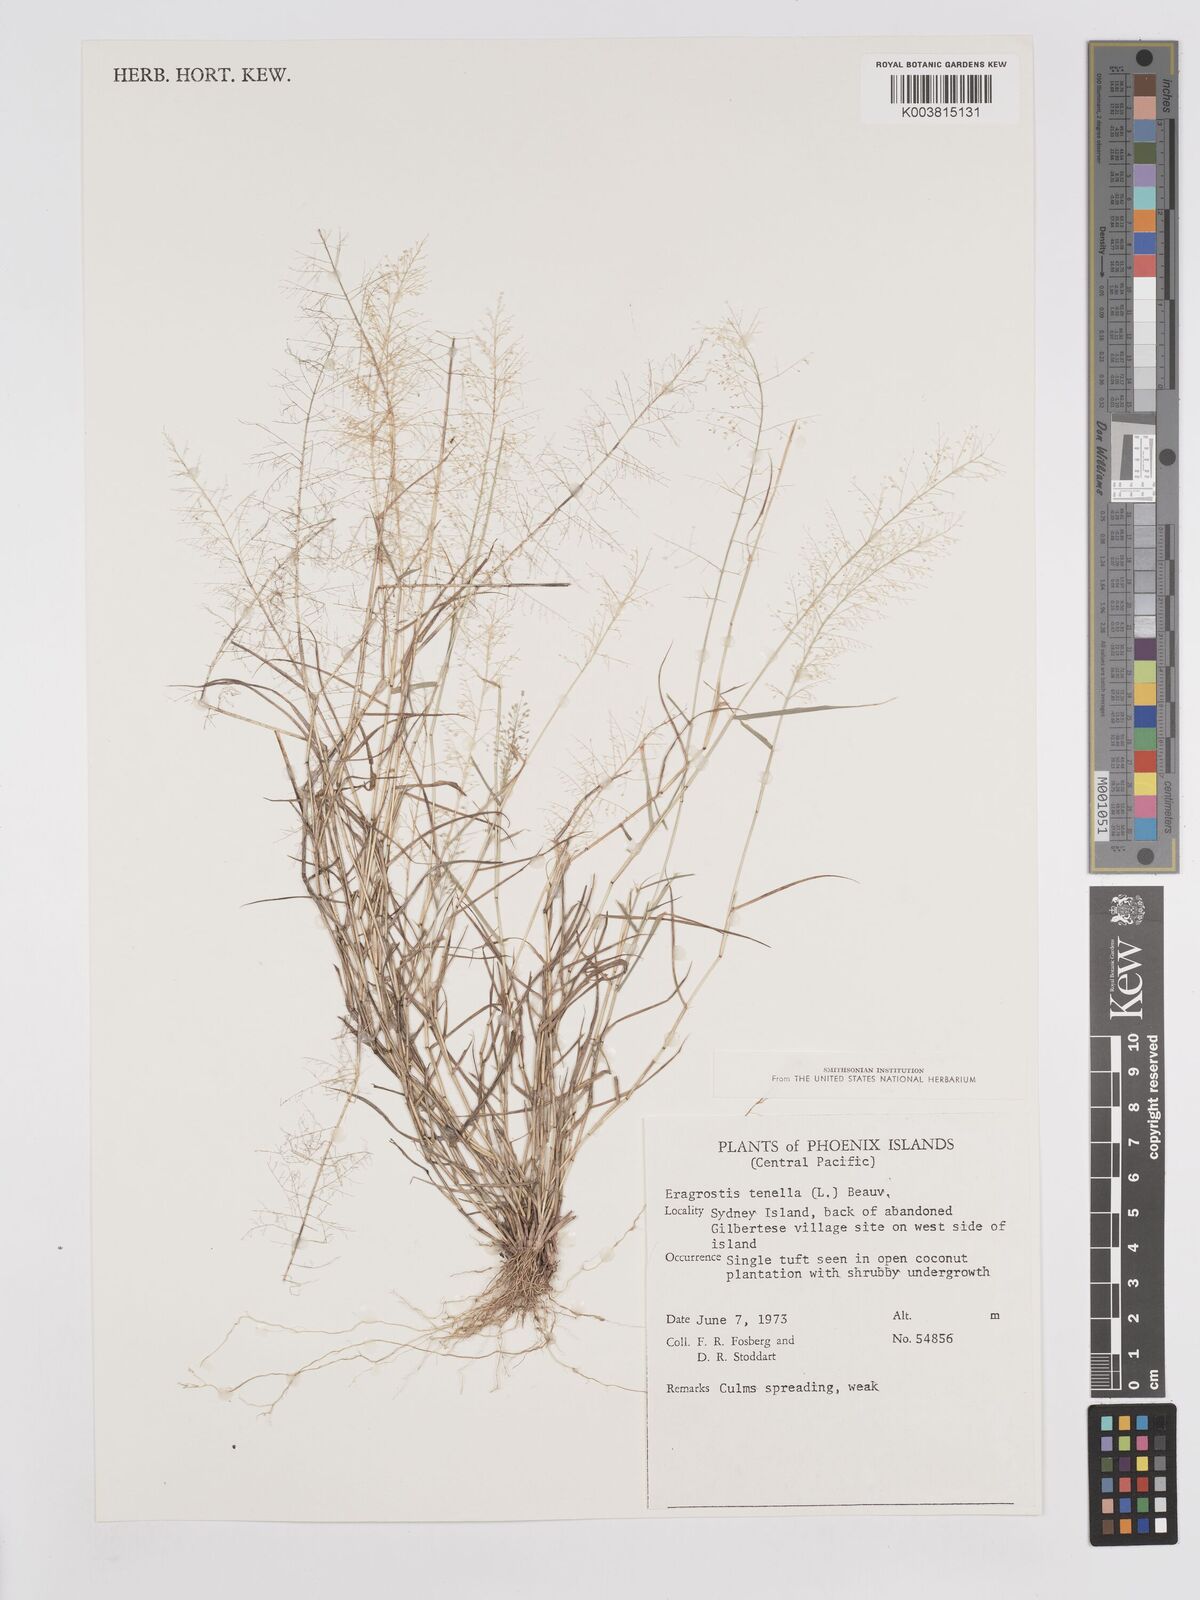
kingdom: Plantae
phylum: Tracheophyta
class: Liliopsida
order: Poales
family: Poaceae
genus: Eragrostis
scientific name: Eragrostis tenella
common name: Japanese lovegrass
